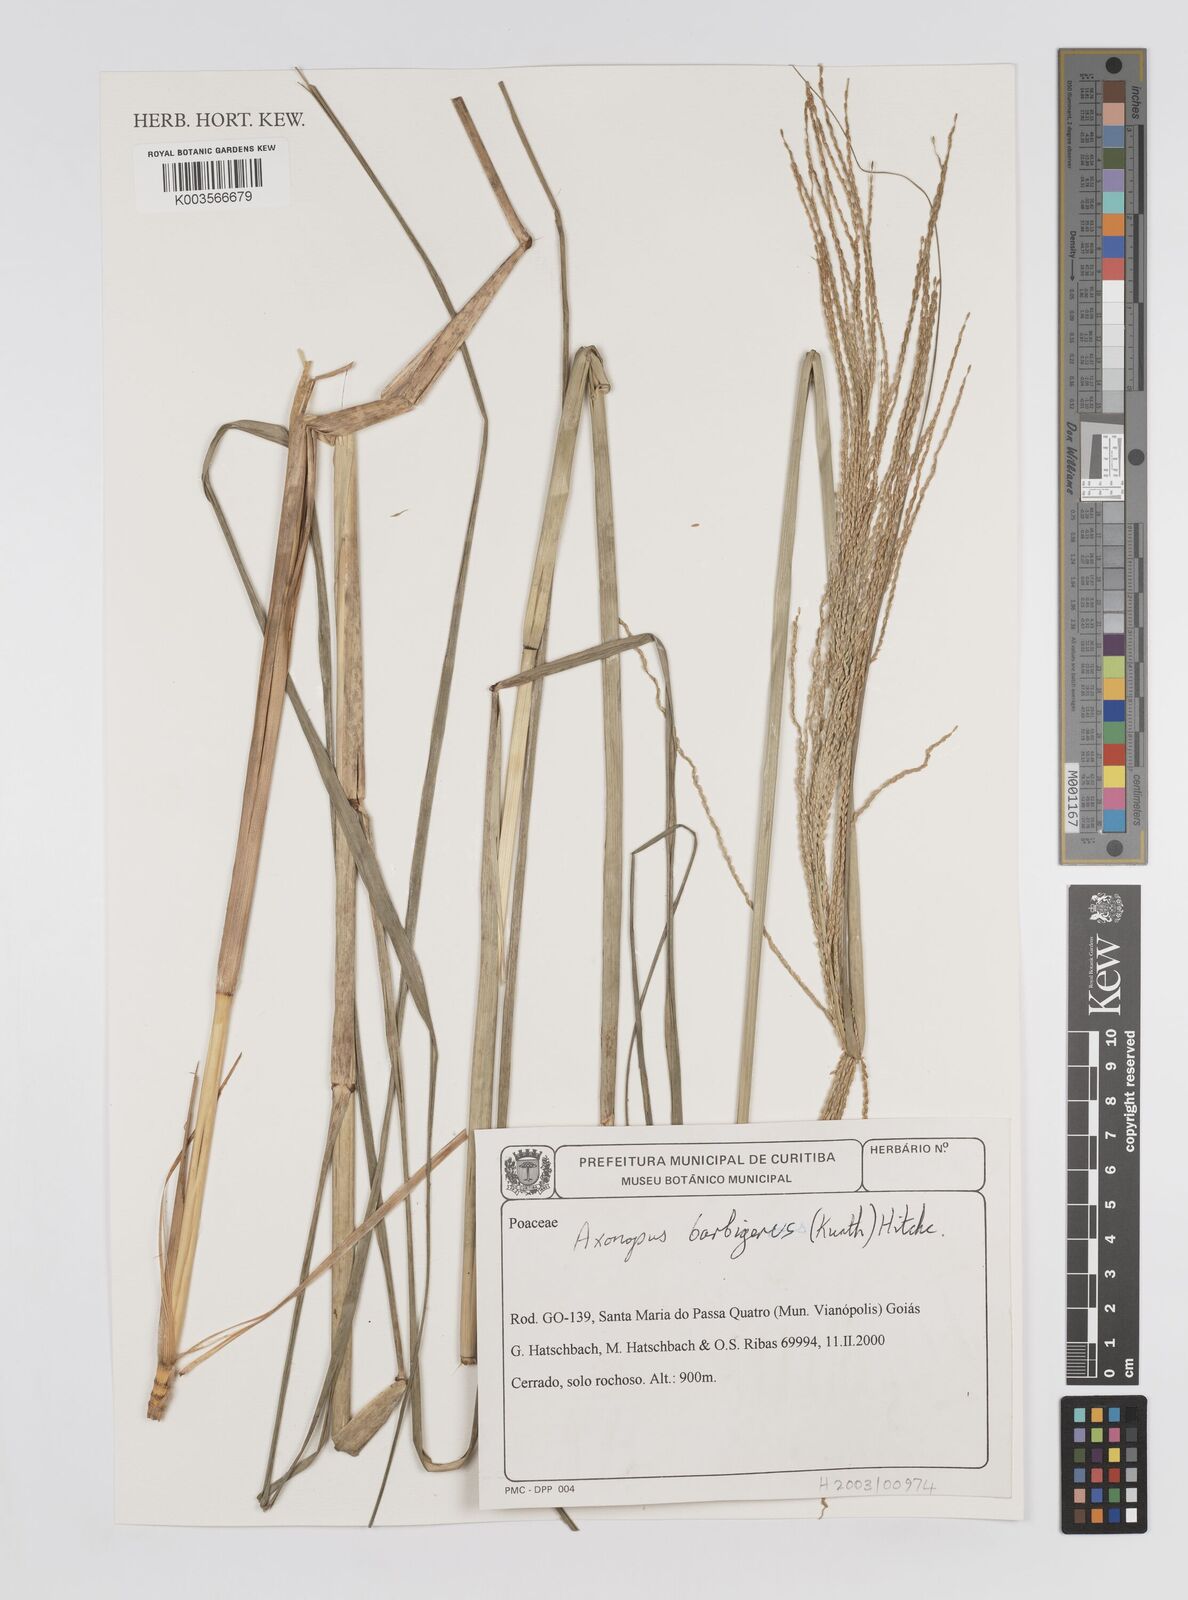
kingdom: Plantae
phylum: Tracheophyta
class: Liliopsida
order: Poales
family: Poaceae
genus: Axonopus
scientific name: Axonopus siccus
